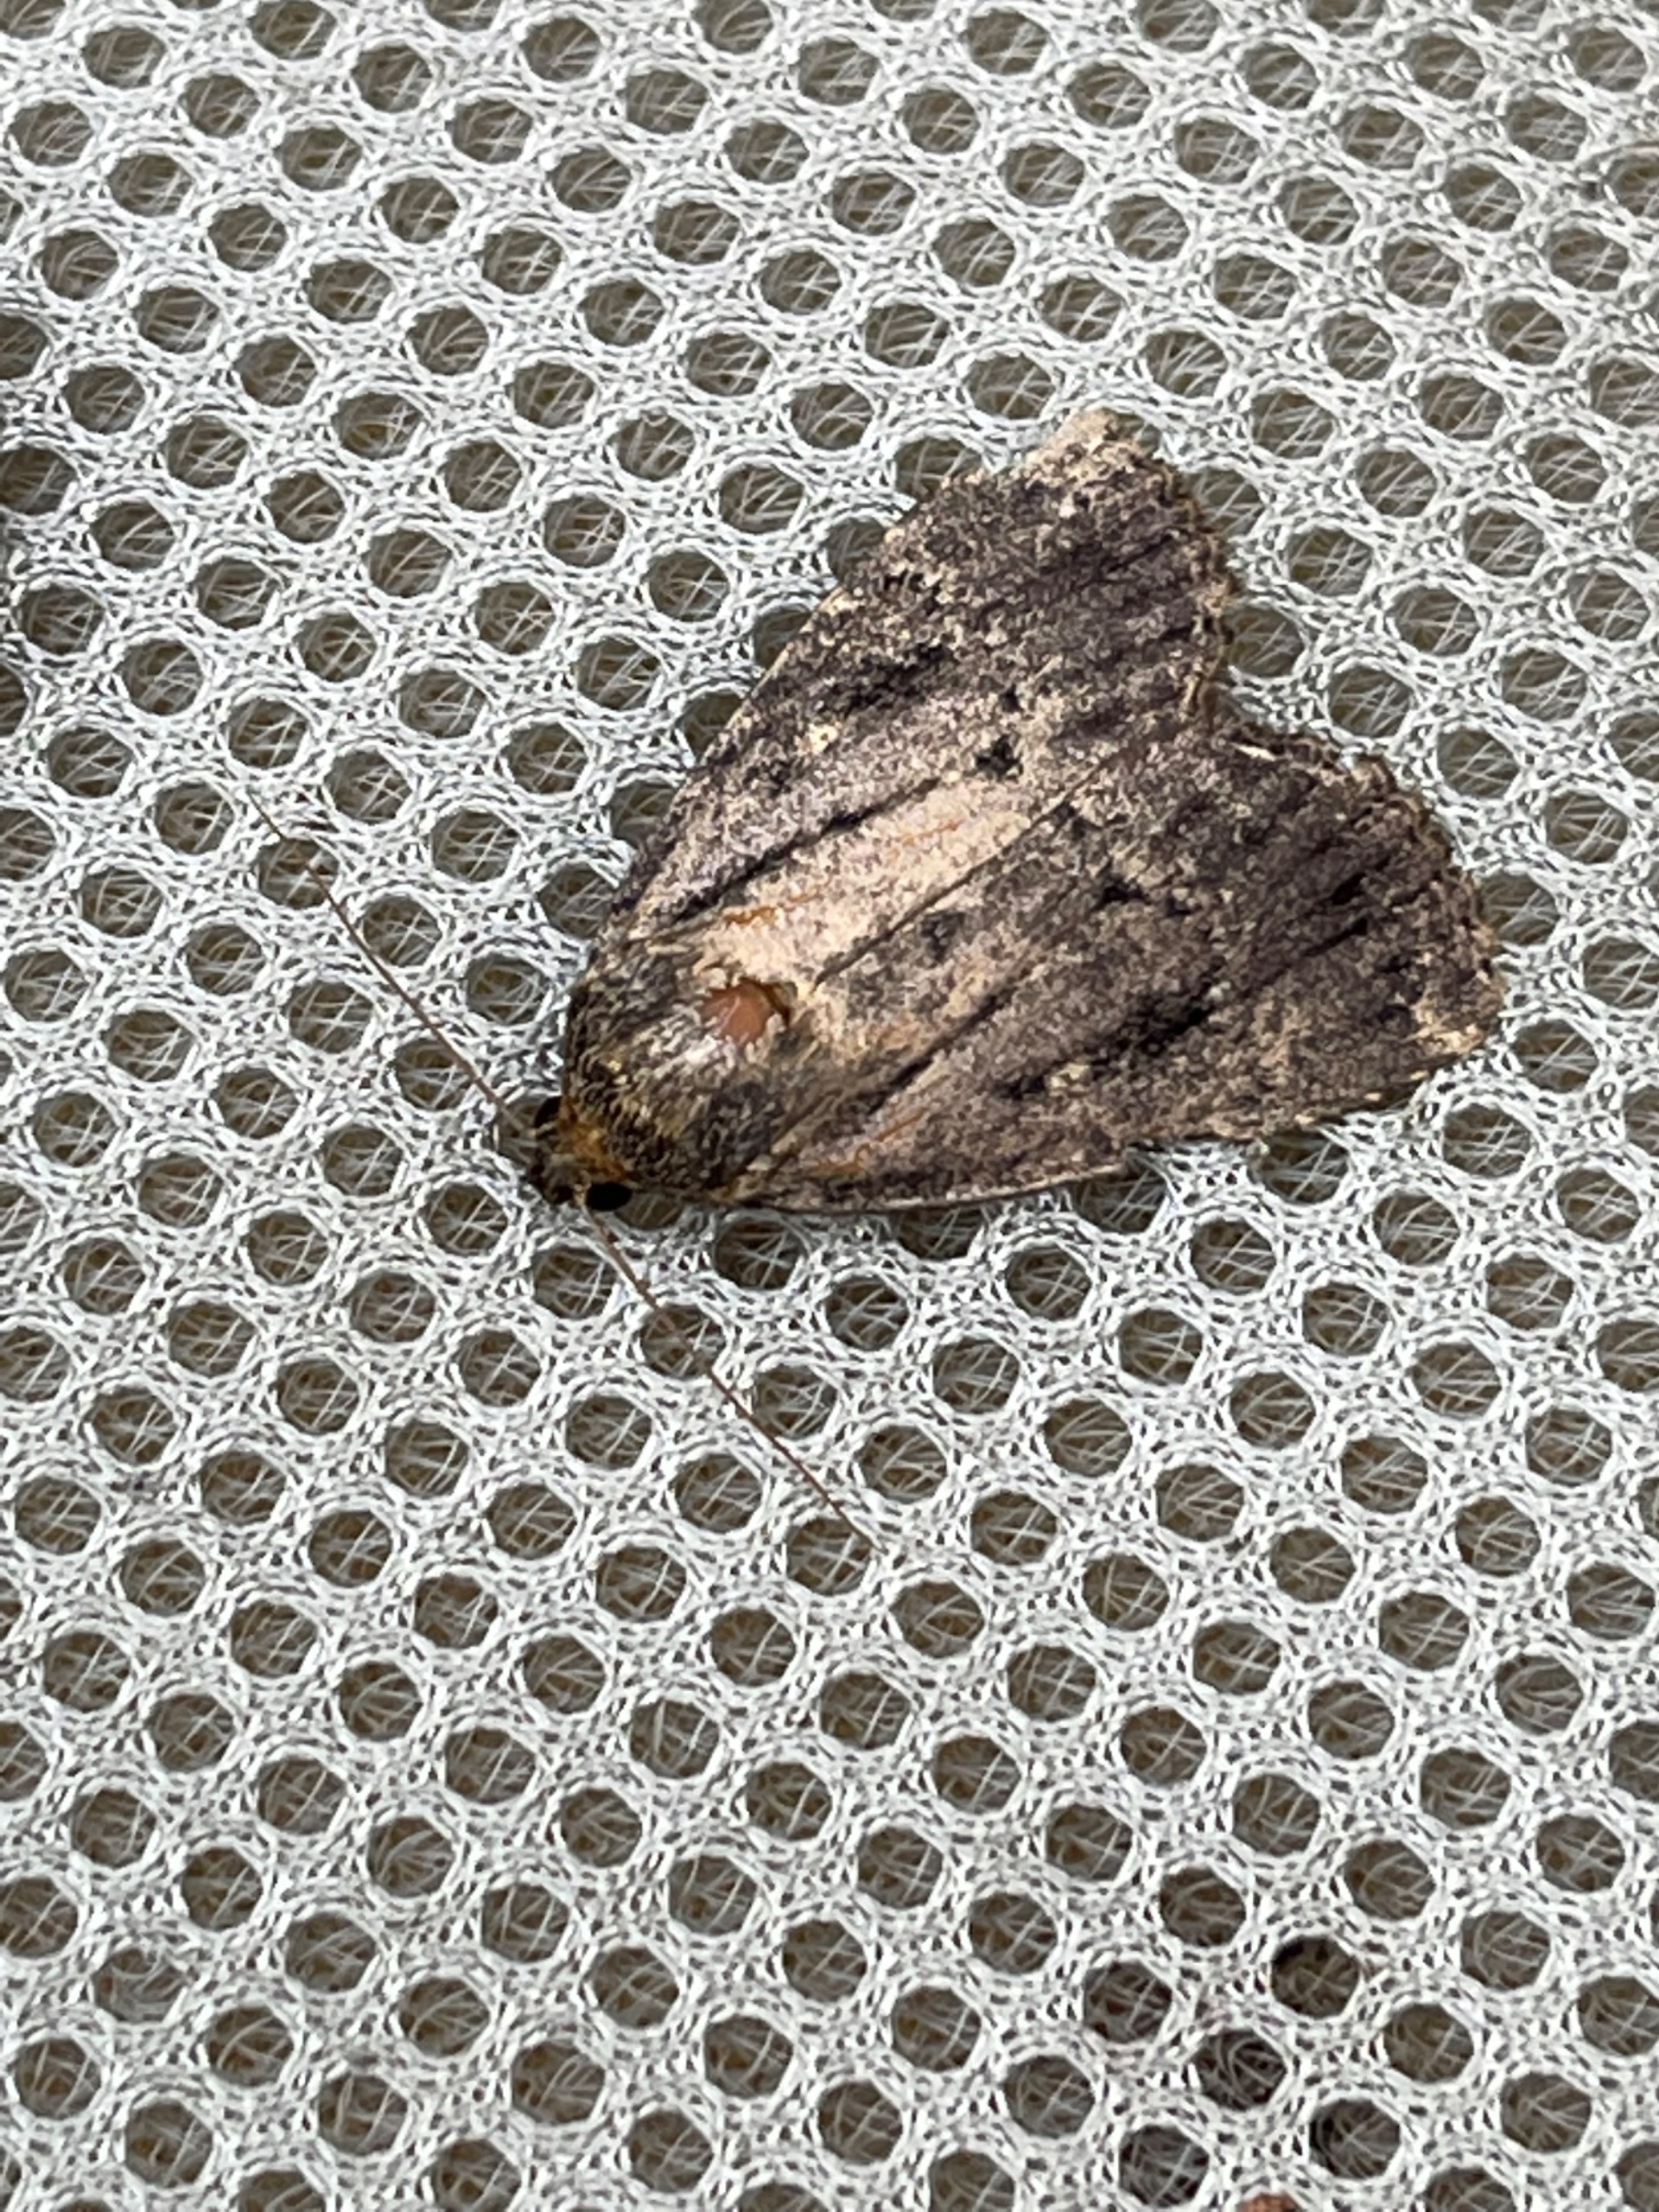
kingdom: Animalia
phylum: Arthropoda
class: Insecta
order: Lepidoptera
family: Noctuidae
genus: Amphipyra
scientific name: Amphipyra pyramidea
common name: Pyramideugle
